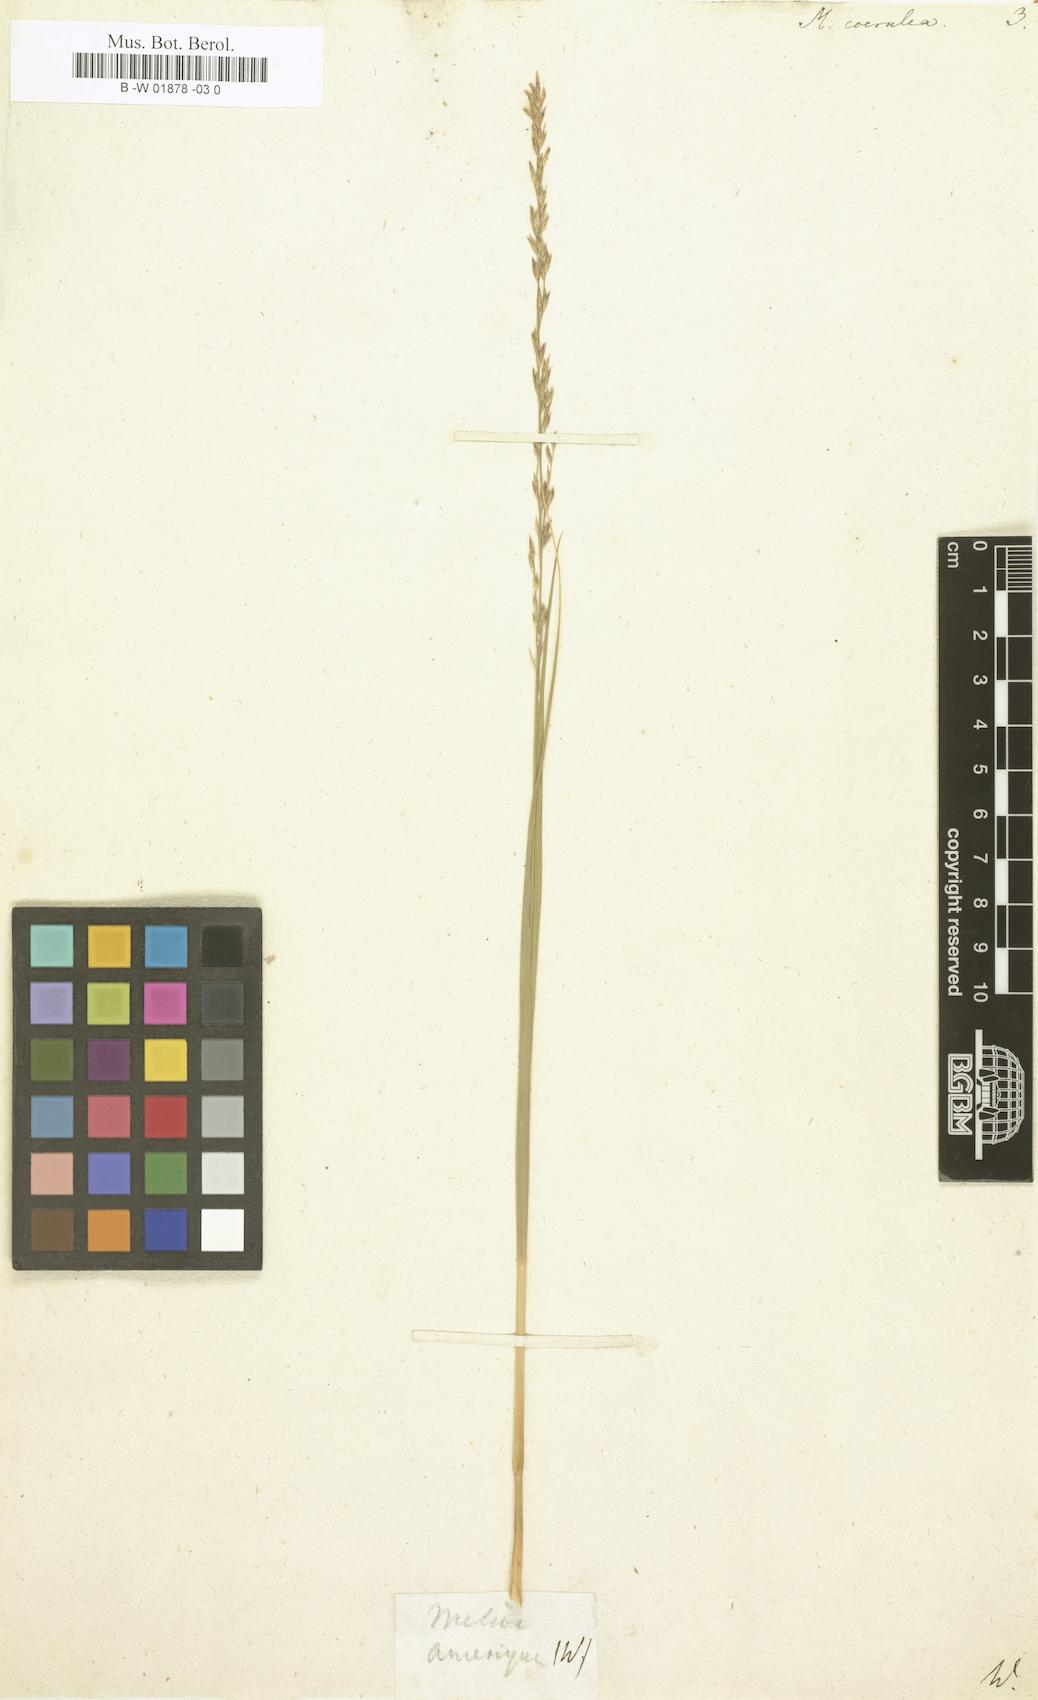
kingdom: Plantae
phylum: Tracheophyta
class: Liliopsida
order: Poales
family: Poaceae
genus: Molinia
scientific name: Molinia caerulea
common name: Purple moor-grass
